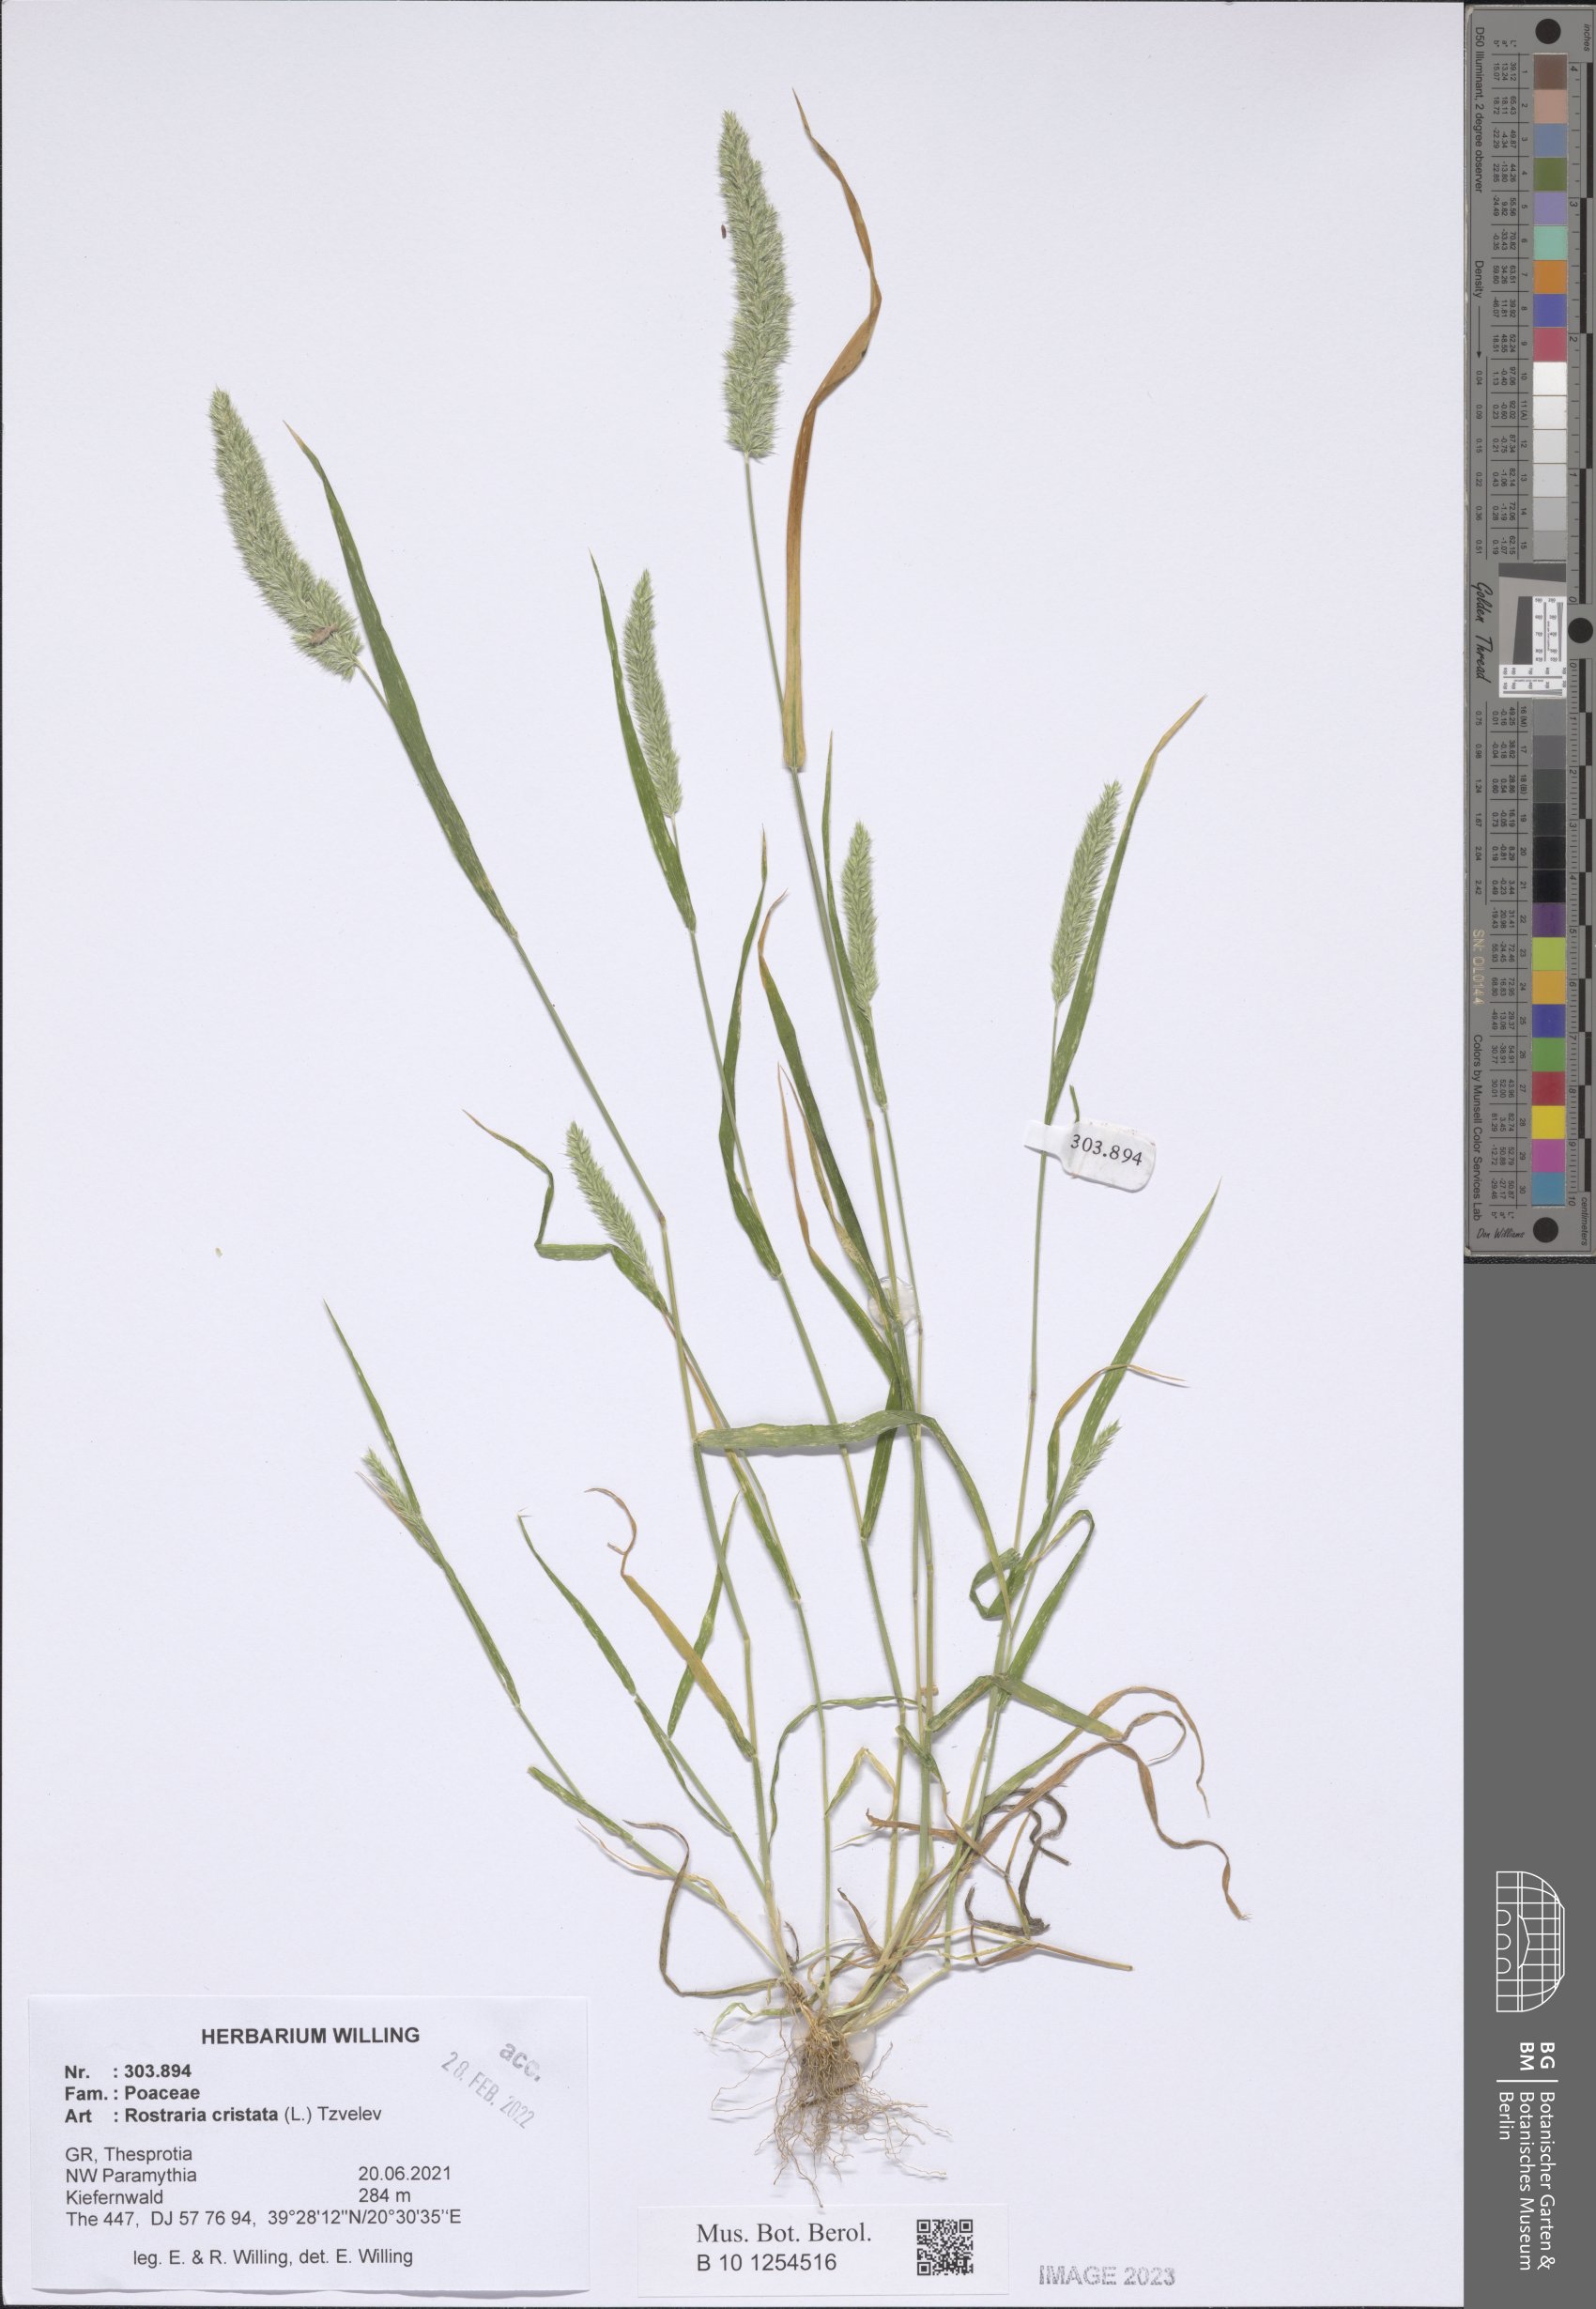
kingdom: Plantae
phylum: Tracheophyta
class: Liliopsida
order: Poales
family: Poaceae
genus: Rostraria
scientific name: Rostraria cristata
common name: Mediterranean hair-grass
